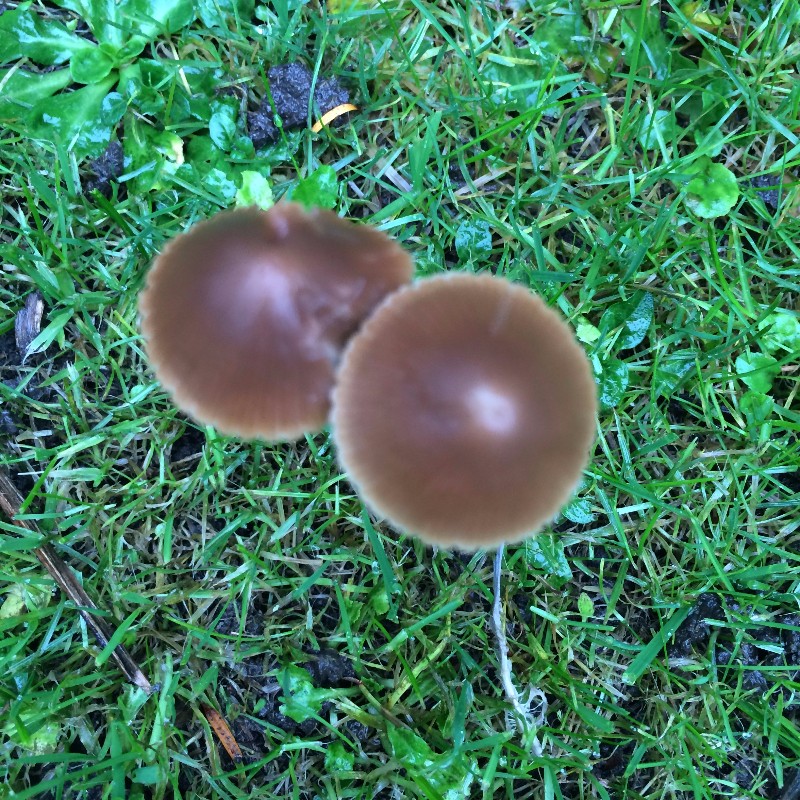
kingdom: Fungi
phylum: Basidiomycota
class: Agaricomycetes
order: Agaricales
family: Psathyrellaceae
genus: Psathyrella
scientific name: Psathyrella
